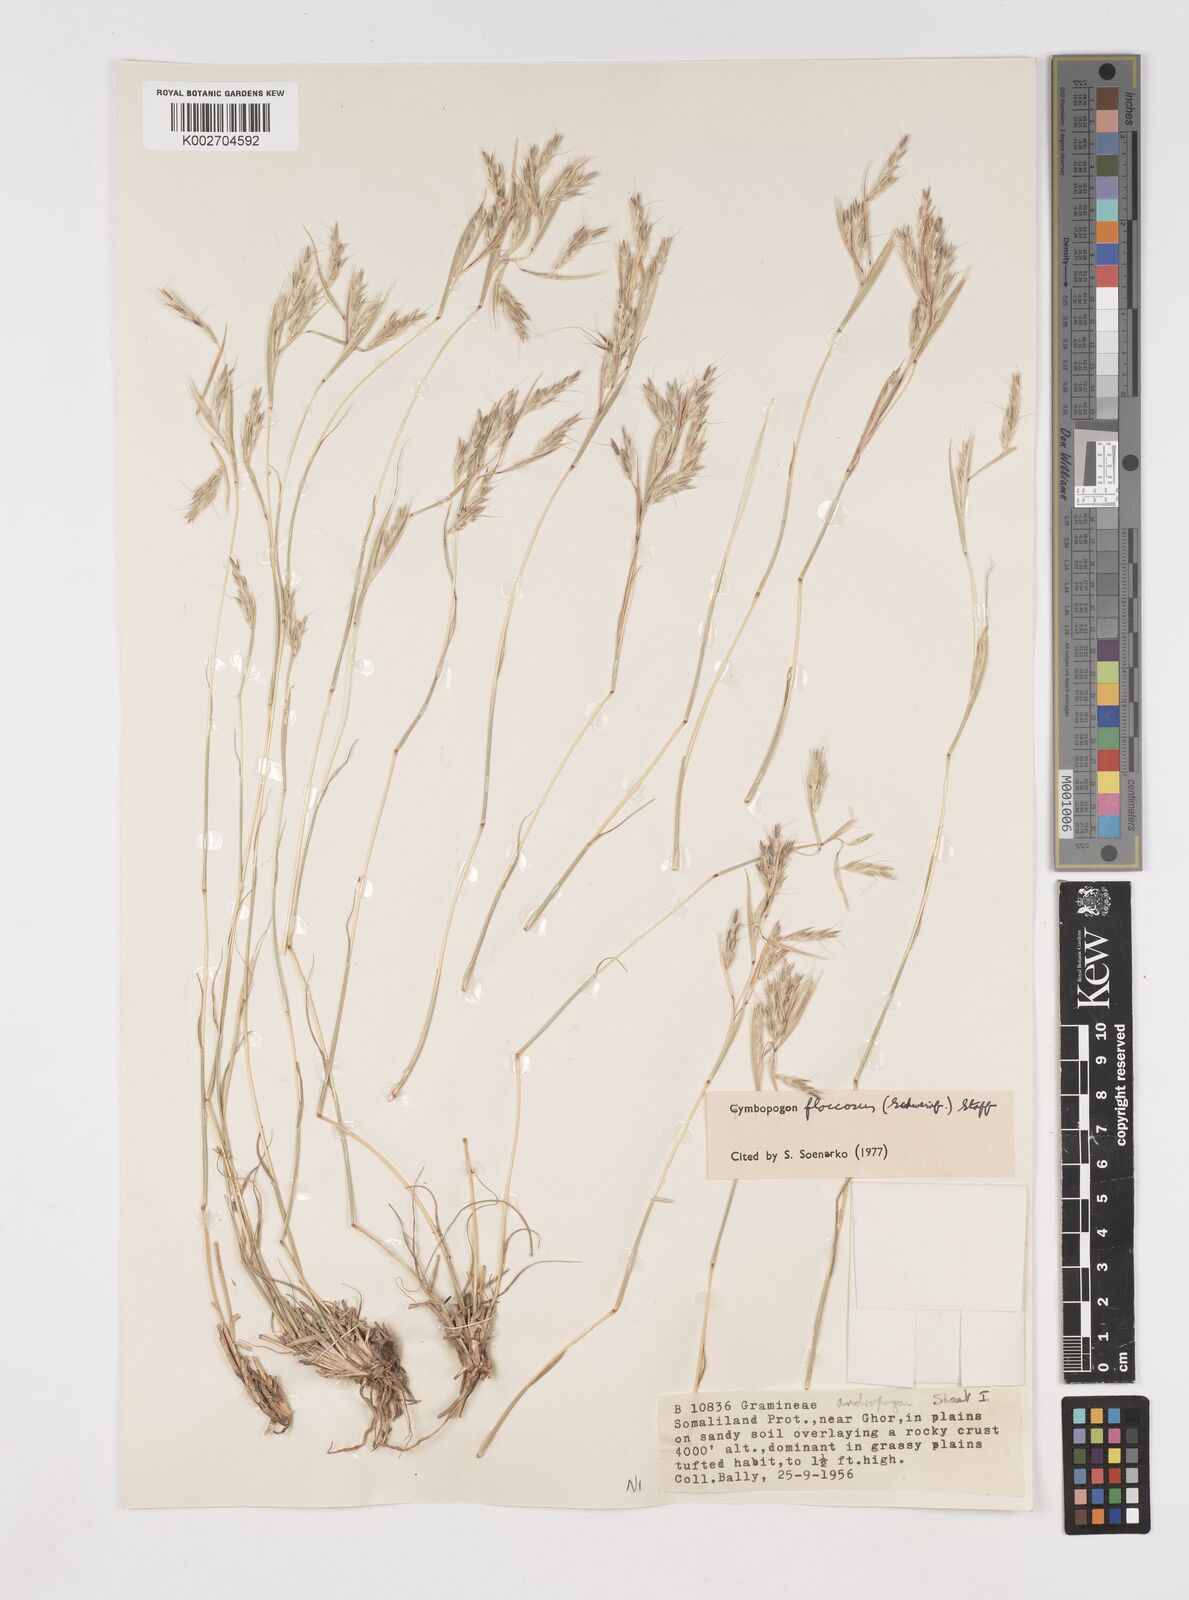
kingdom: Plantae
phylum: Tracheophyta
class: Liliopsida
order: Poales
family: Poaceae
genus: Cymbopogon
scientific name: Cymbopogon commutatus
